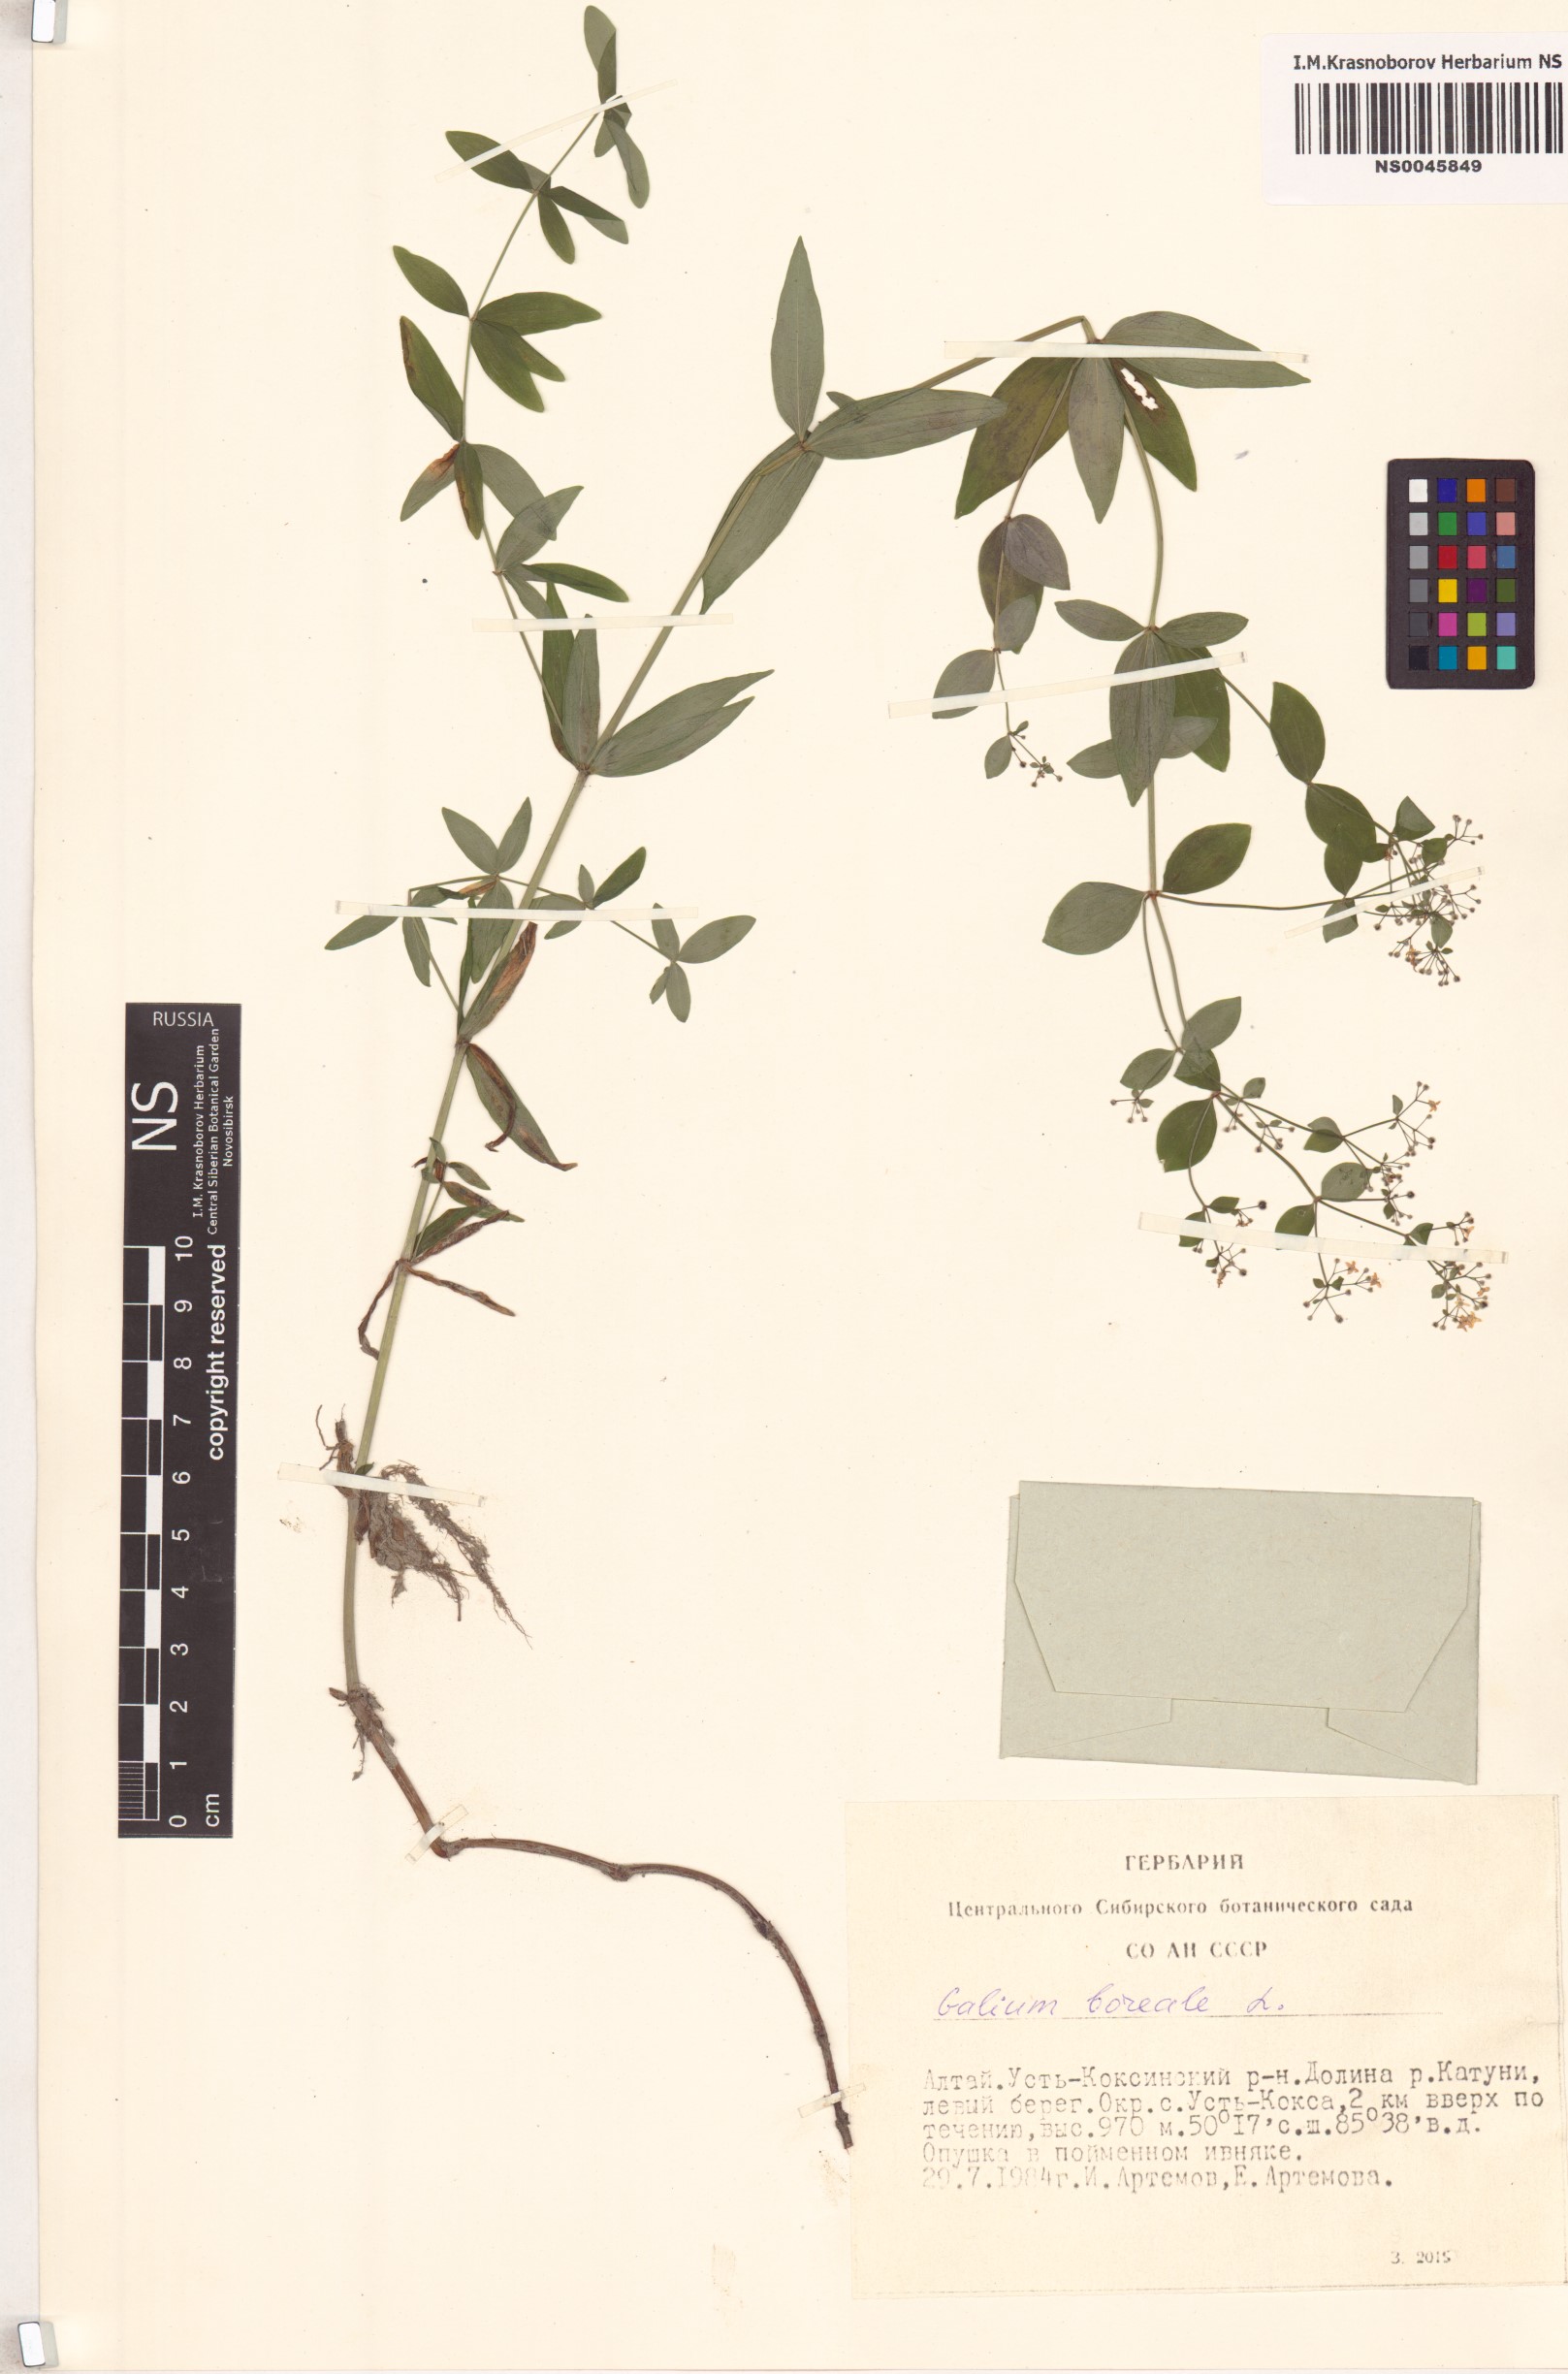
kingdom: Plantae
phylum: Tracheophyta
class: Magnoliopsida
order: Gentianales
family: Rubiaceae
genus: Galium
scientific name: Galium boreale
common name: Northern bedstraw
